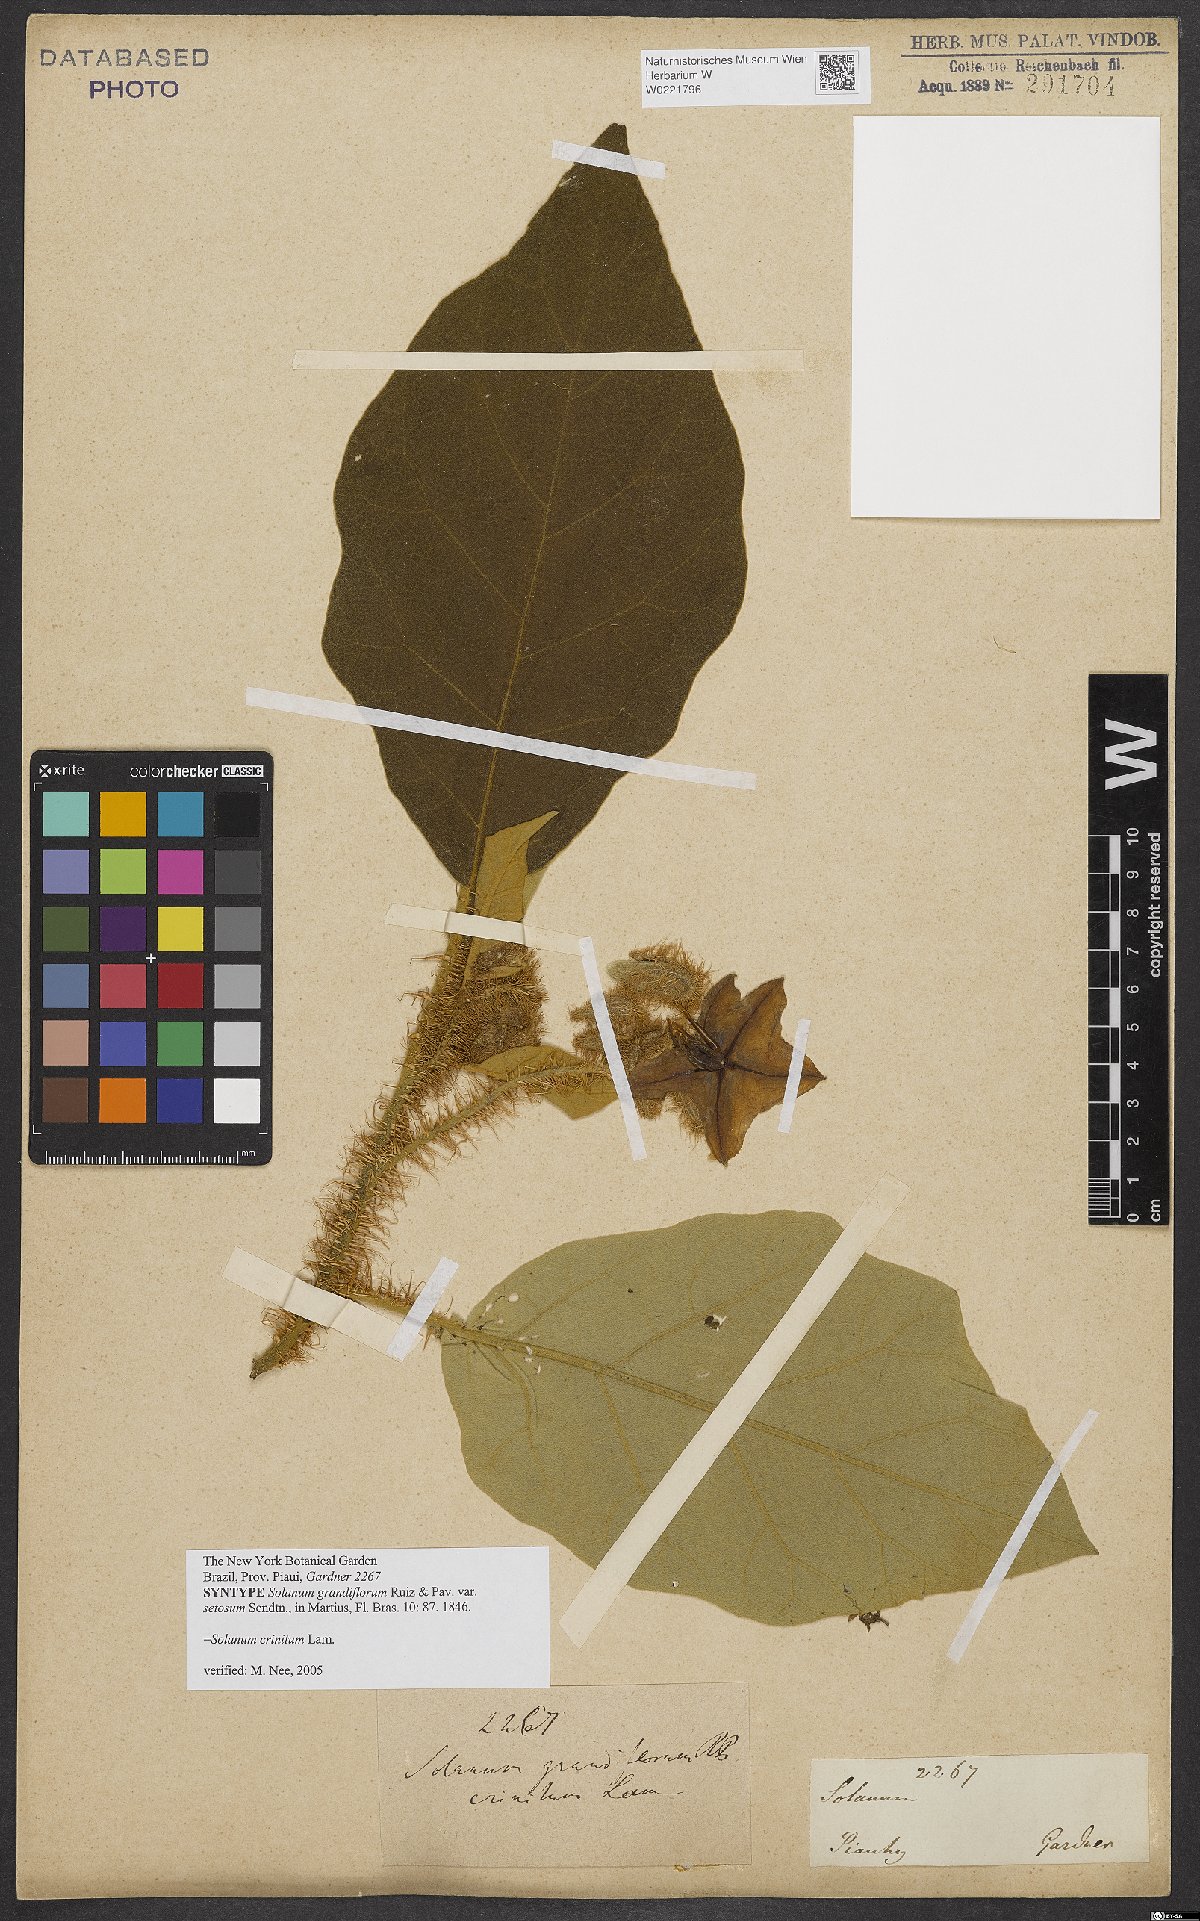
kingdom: Plantae
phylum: Tracheophyta
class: Magnoliopsida
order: Solanales
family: Solanaceae
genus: Solanum
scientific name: Solanum crinitum
